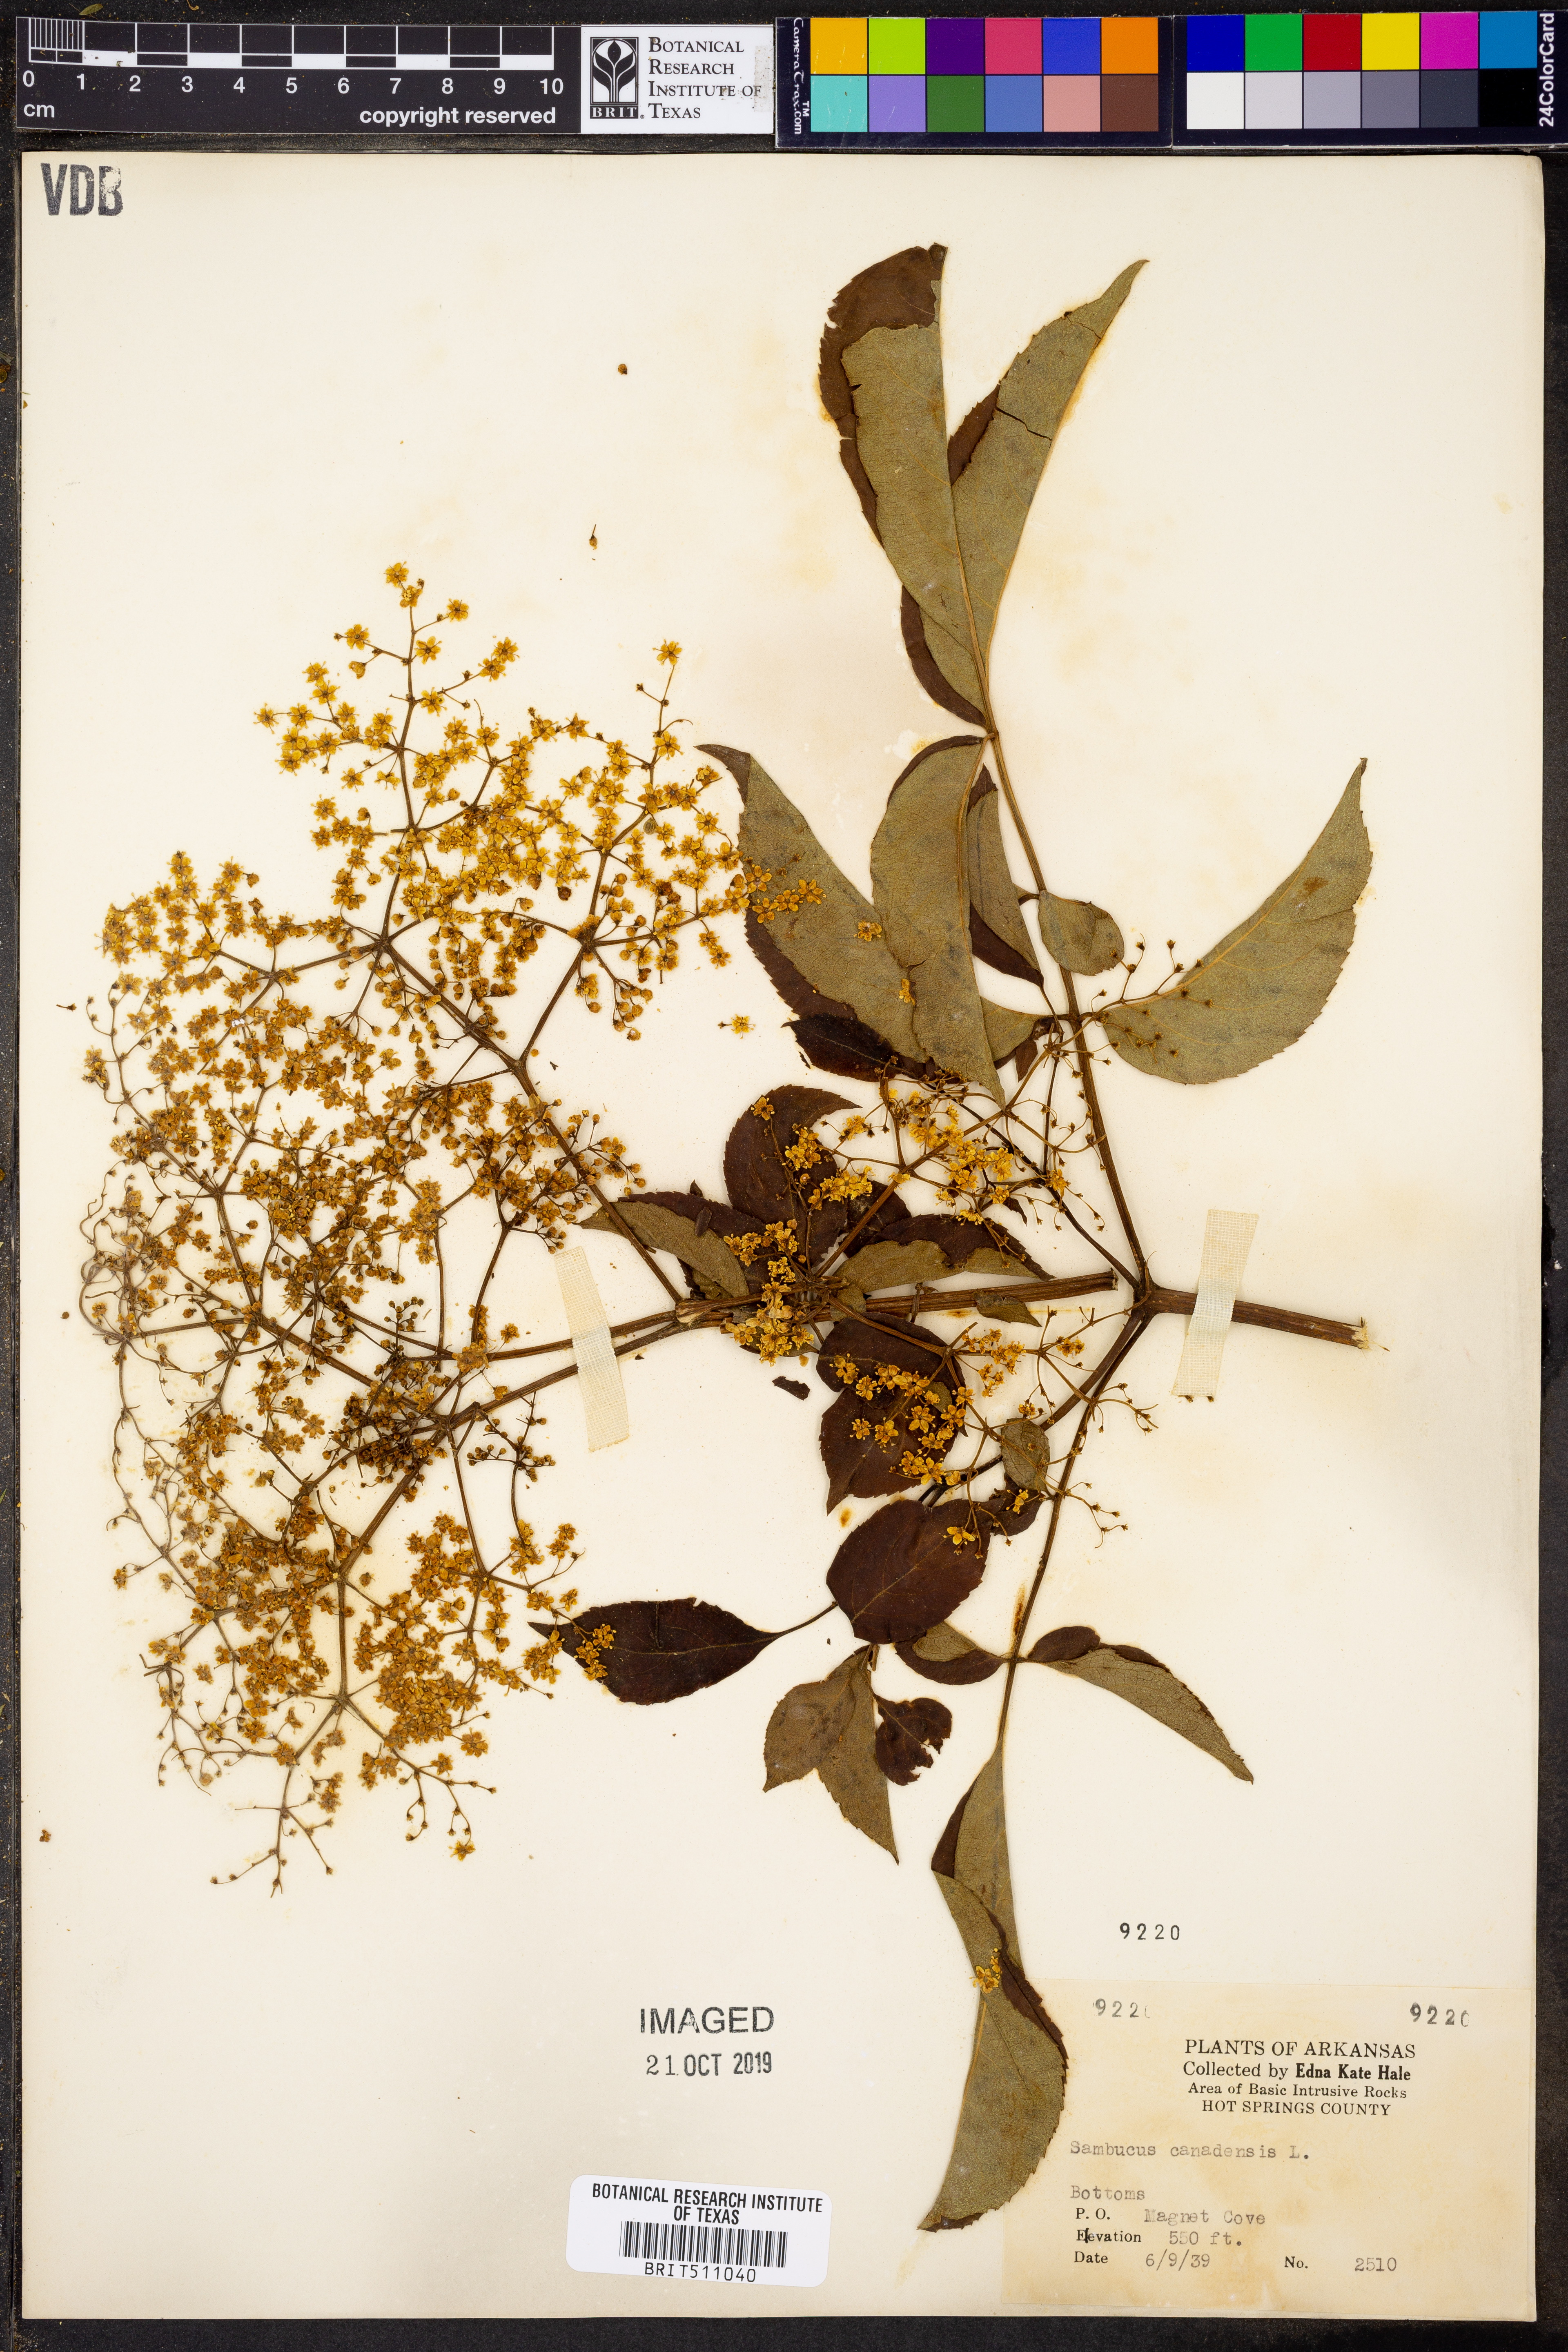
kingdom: Plantae
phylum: Tracheophyta
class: Magnoliopsida
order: Dipsacales
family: Viburnaceae
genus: Sambucus
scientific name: Sambucus canadensis
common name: American elder
